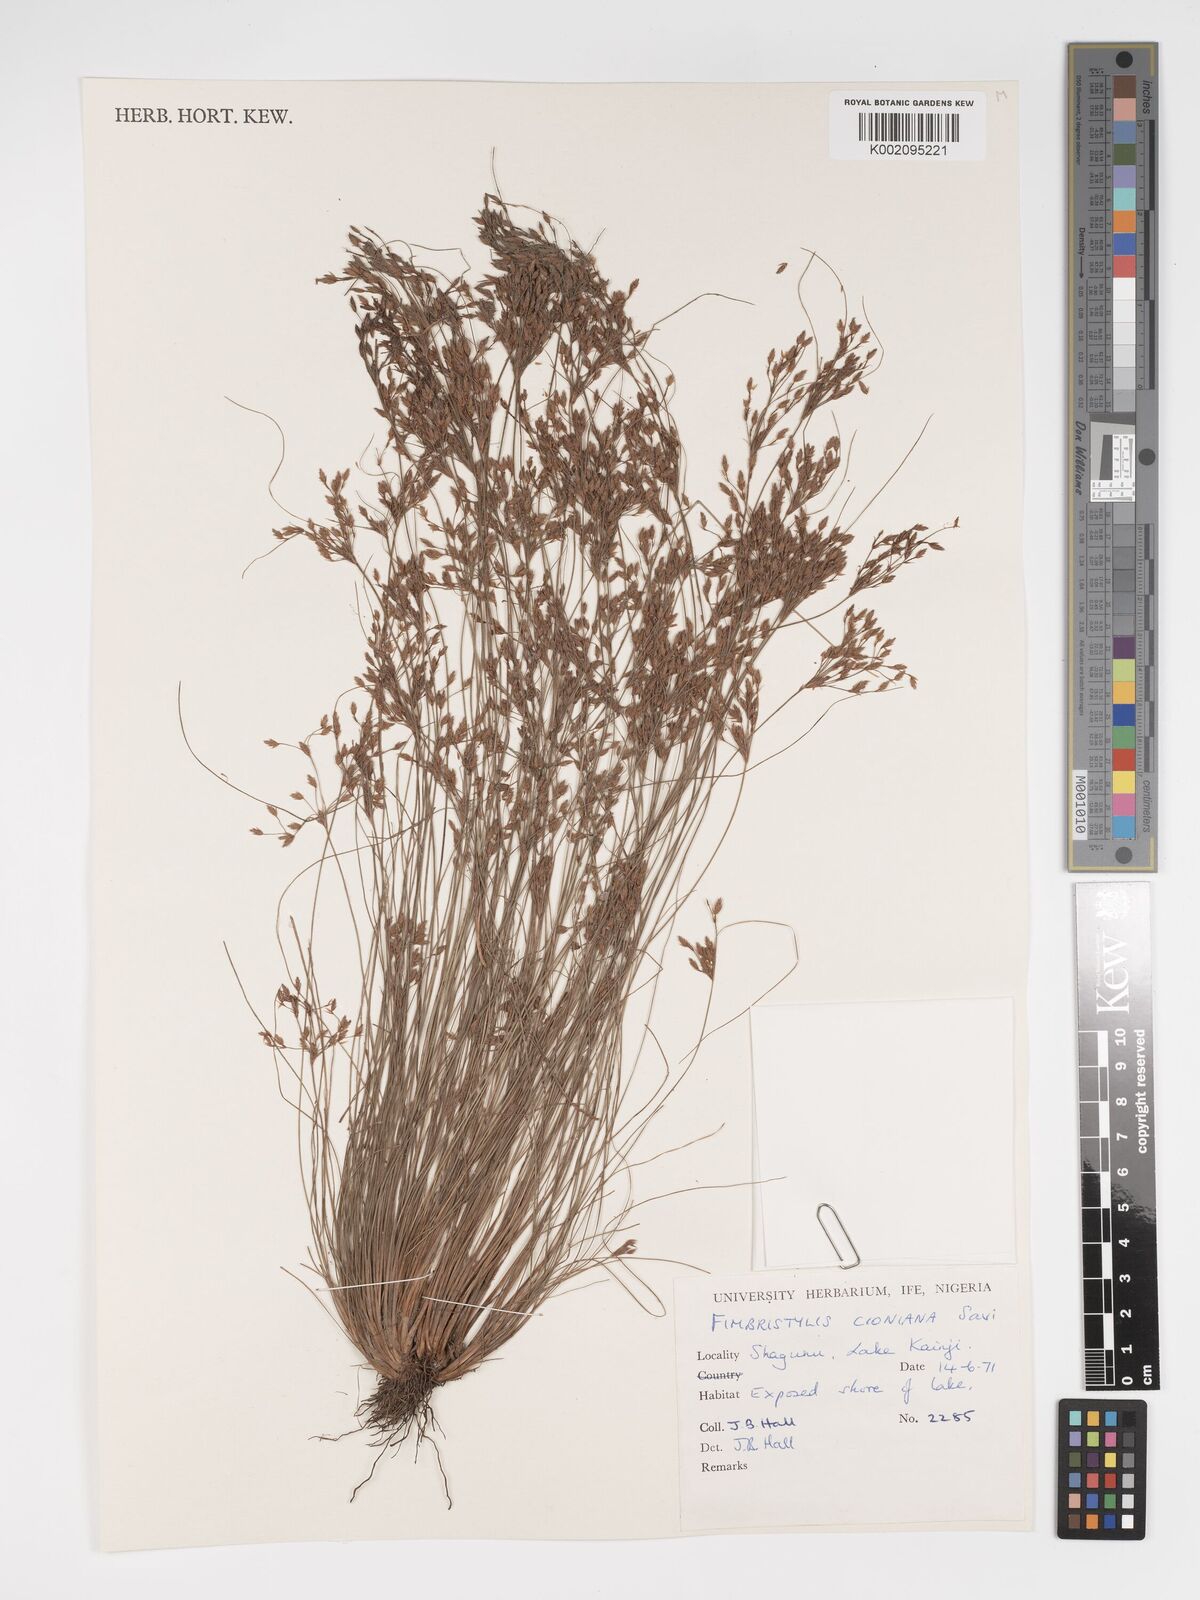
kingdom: Plantae
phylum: Tracheophyta
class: Liliopsida
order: Poales
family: Cyperaceae
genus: Bulbostylis
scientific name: Bulbostylis cioniana
